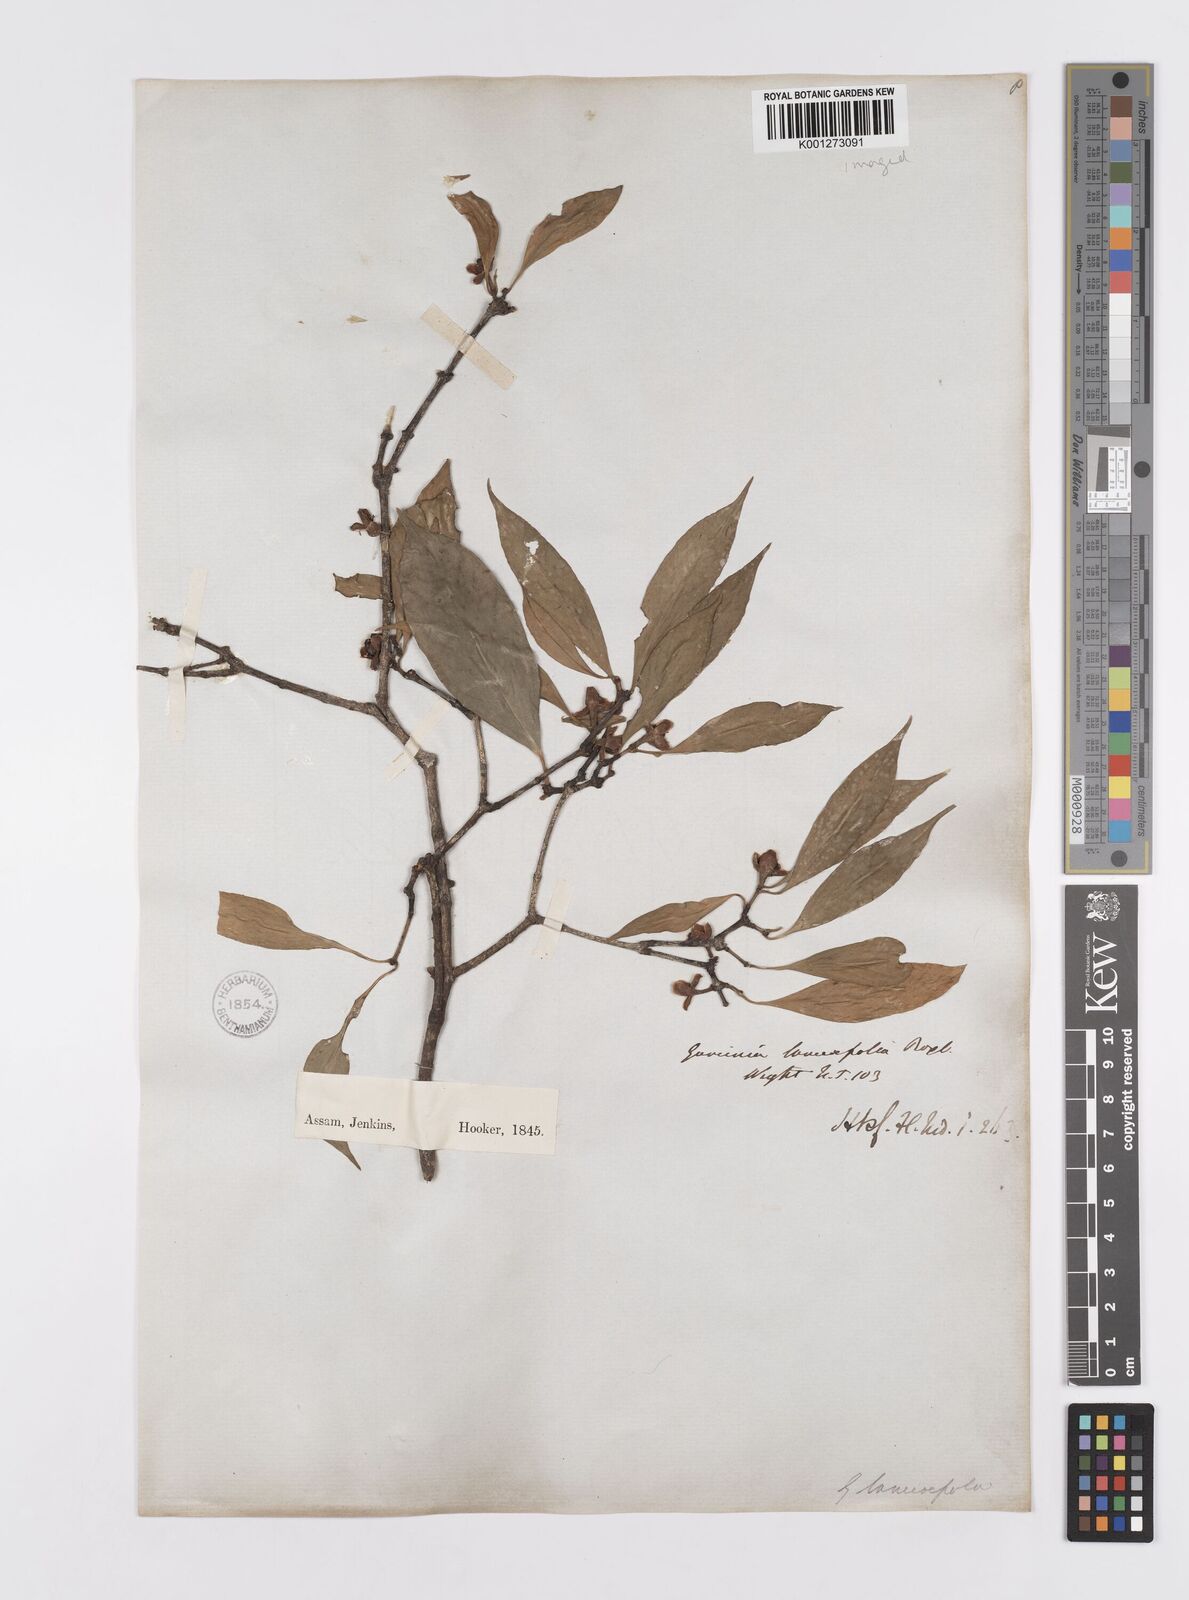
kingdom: Plantae
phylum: Tracheophyta
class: Magnoliopsida
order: Malpighiales
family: Clusiaceae
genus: Garcinia
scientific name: Garcinia lanceifolia
